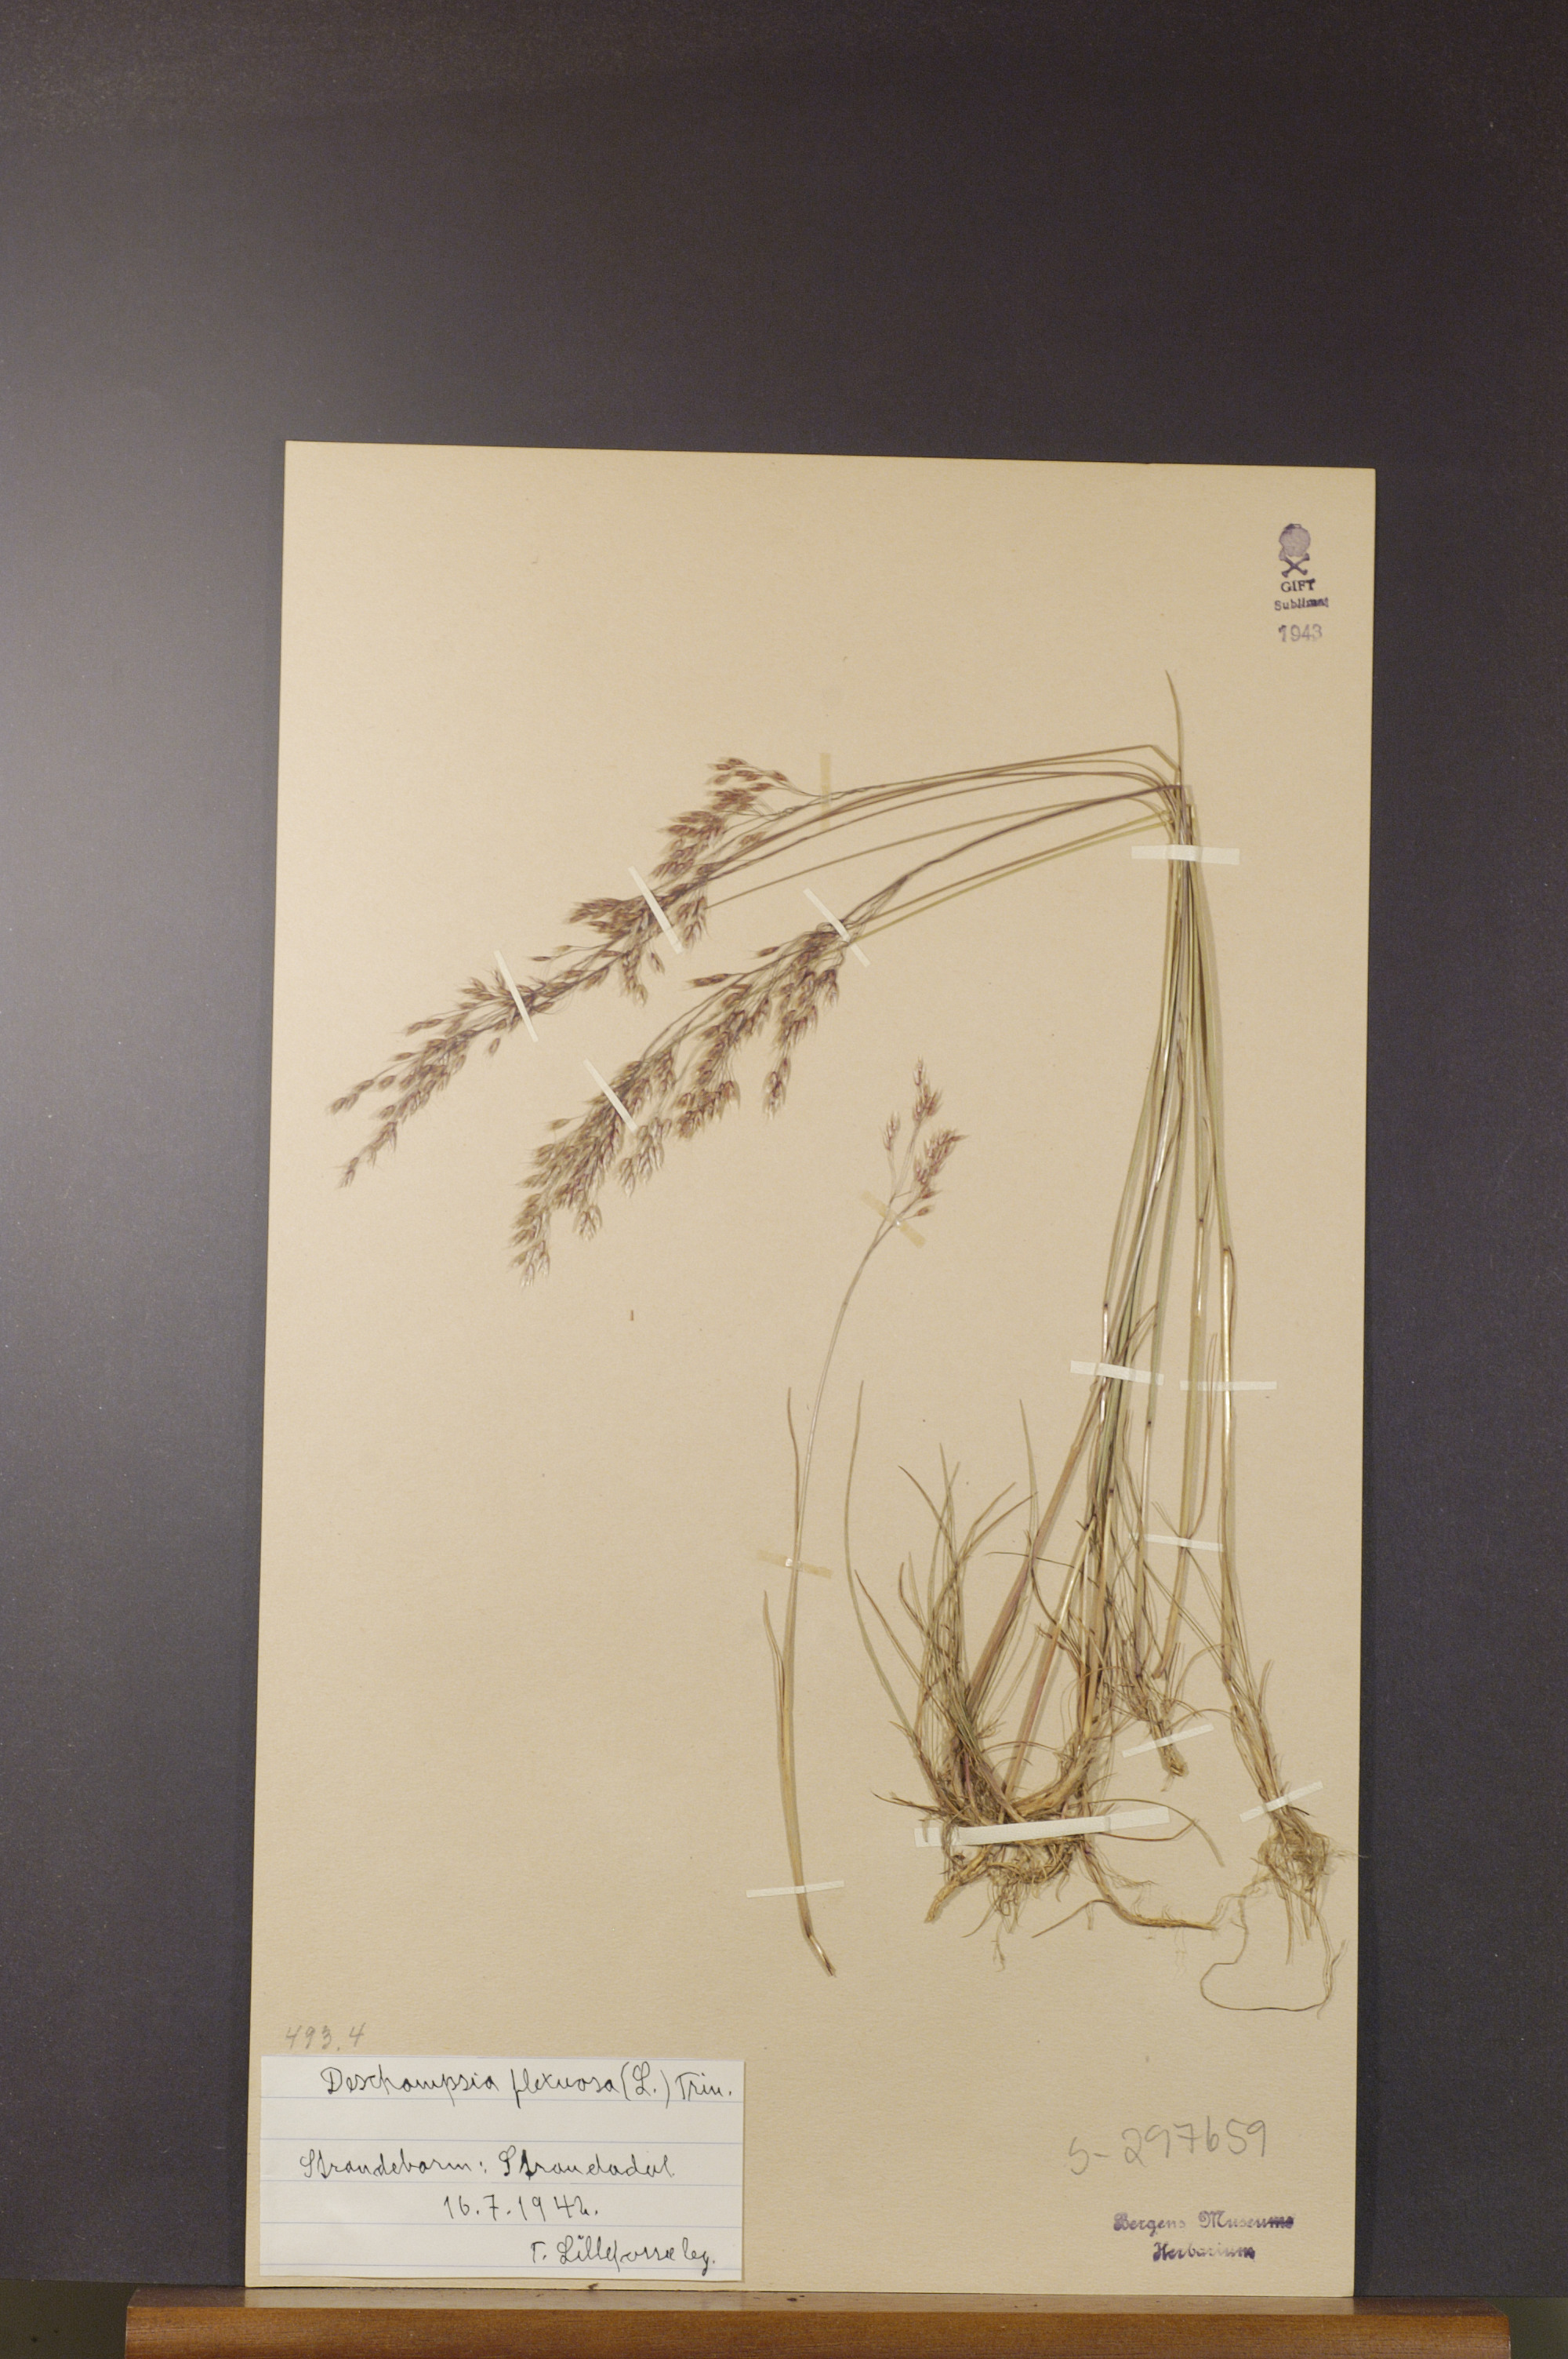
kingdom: Plantae
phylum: Tracheophyta
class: Liliopsida
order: Poales
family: Poaceae
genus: Avenella
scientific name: Avenella flexuosa
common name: Wavy hairgrass
